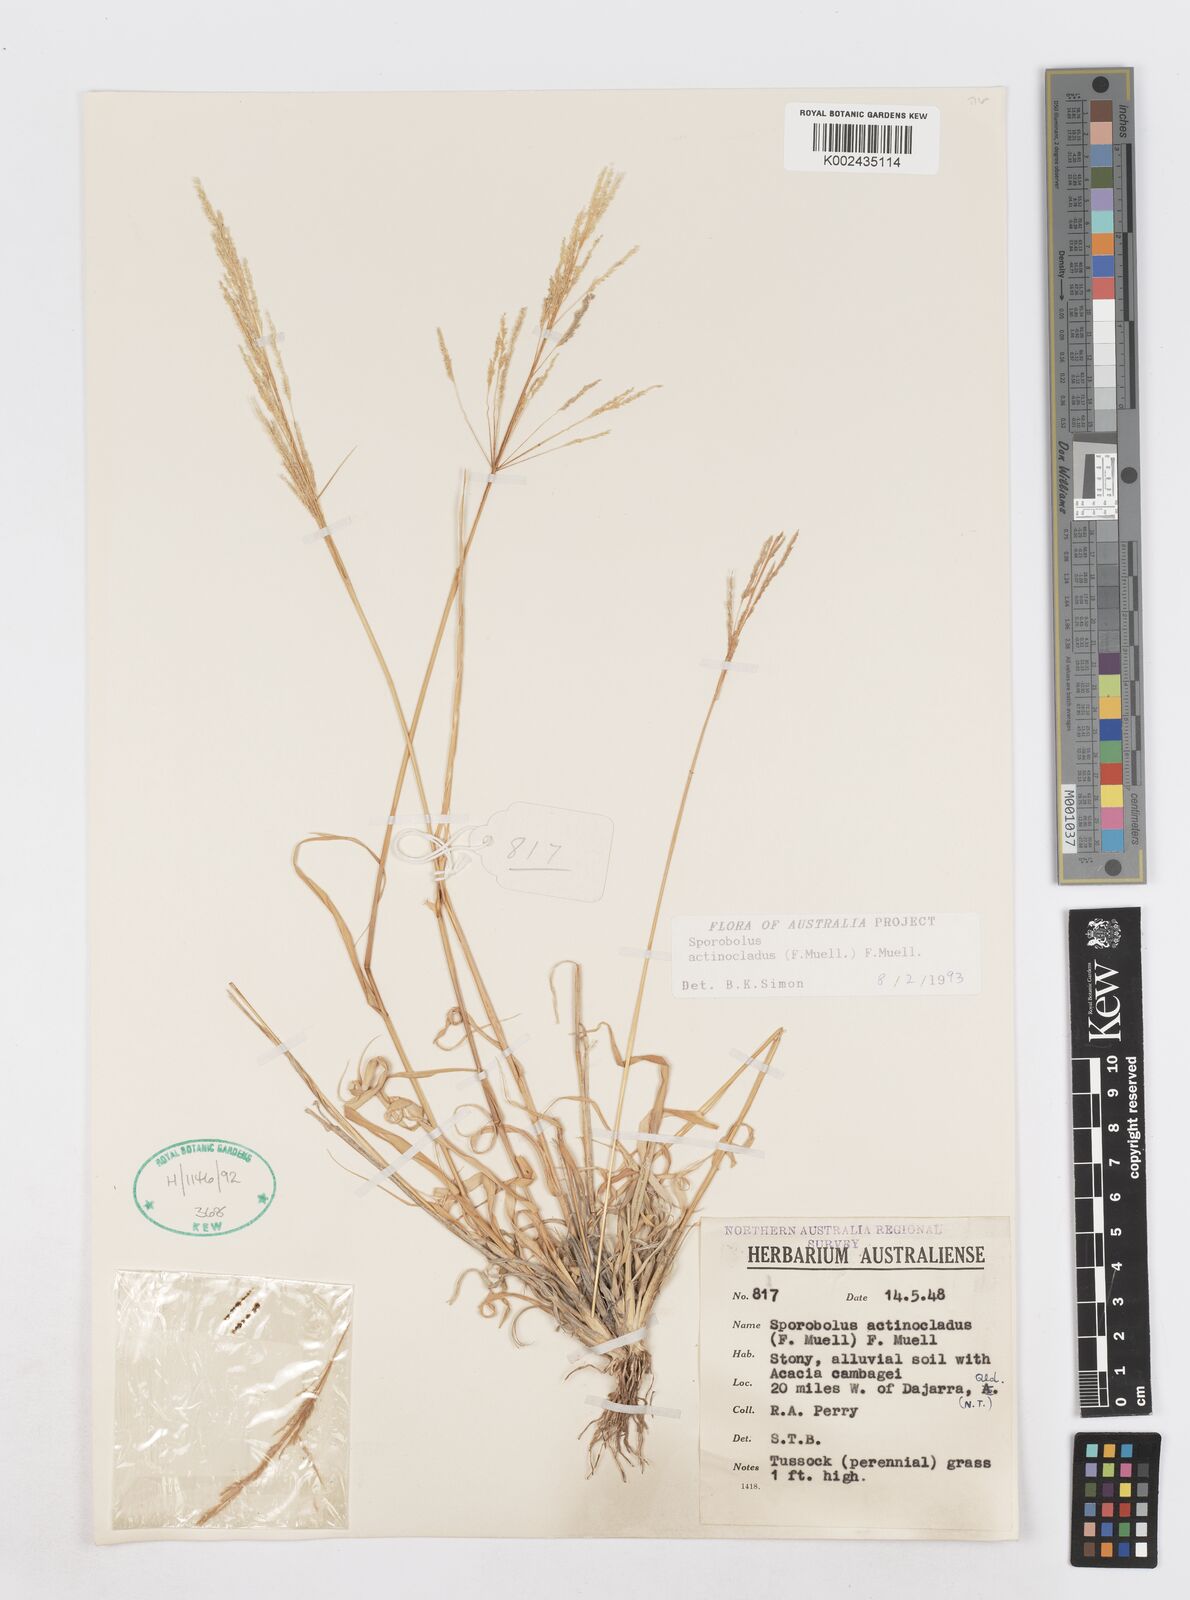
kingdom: Plantae
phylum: Tracheophyta
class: Liliopsida
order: Poales
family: Poaceae
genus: Sporobolus
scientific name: Sporobolus actinocladus
